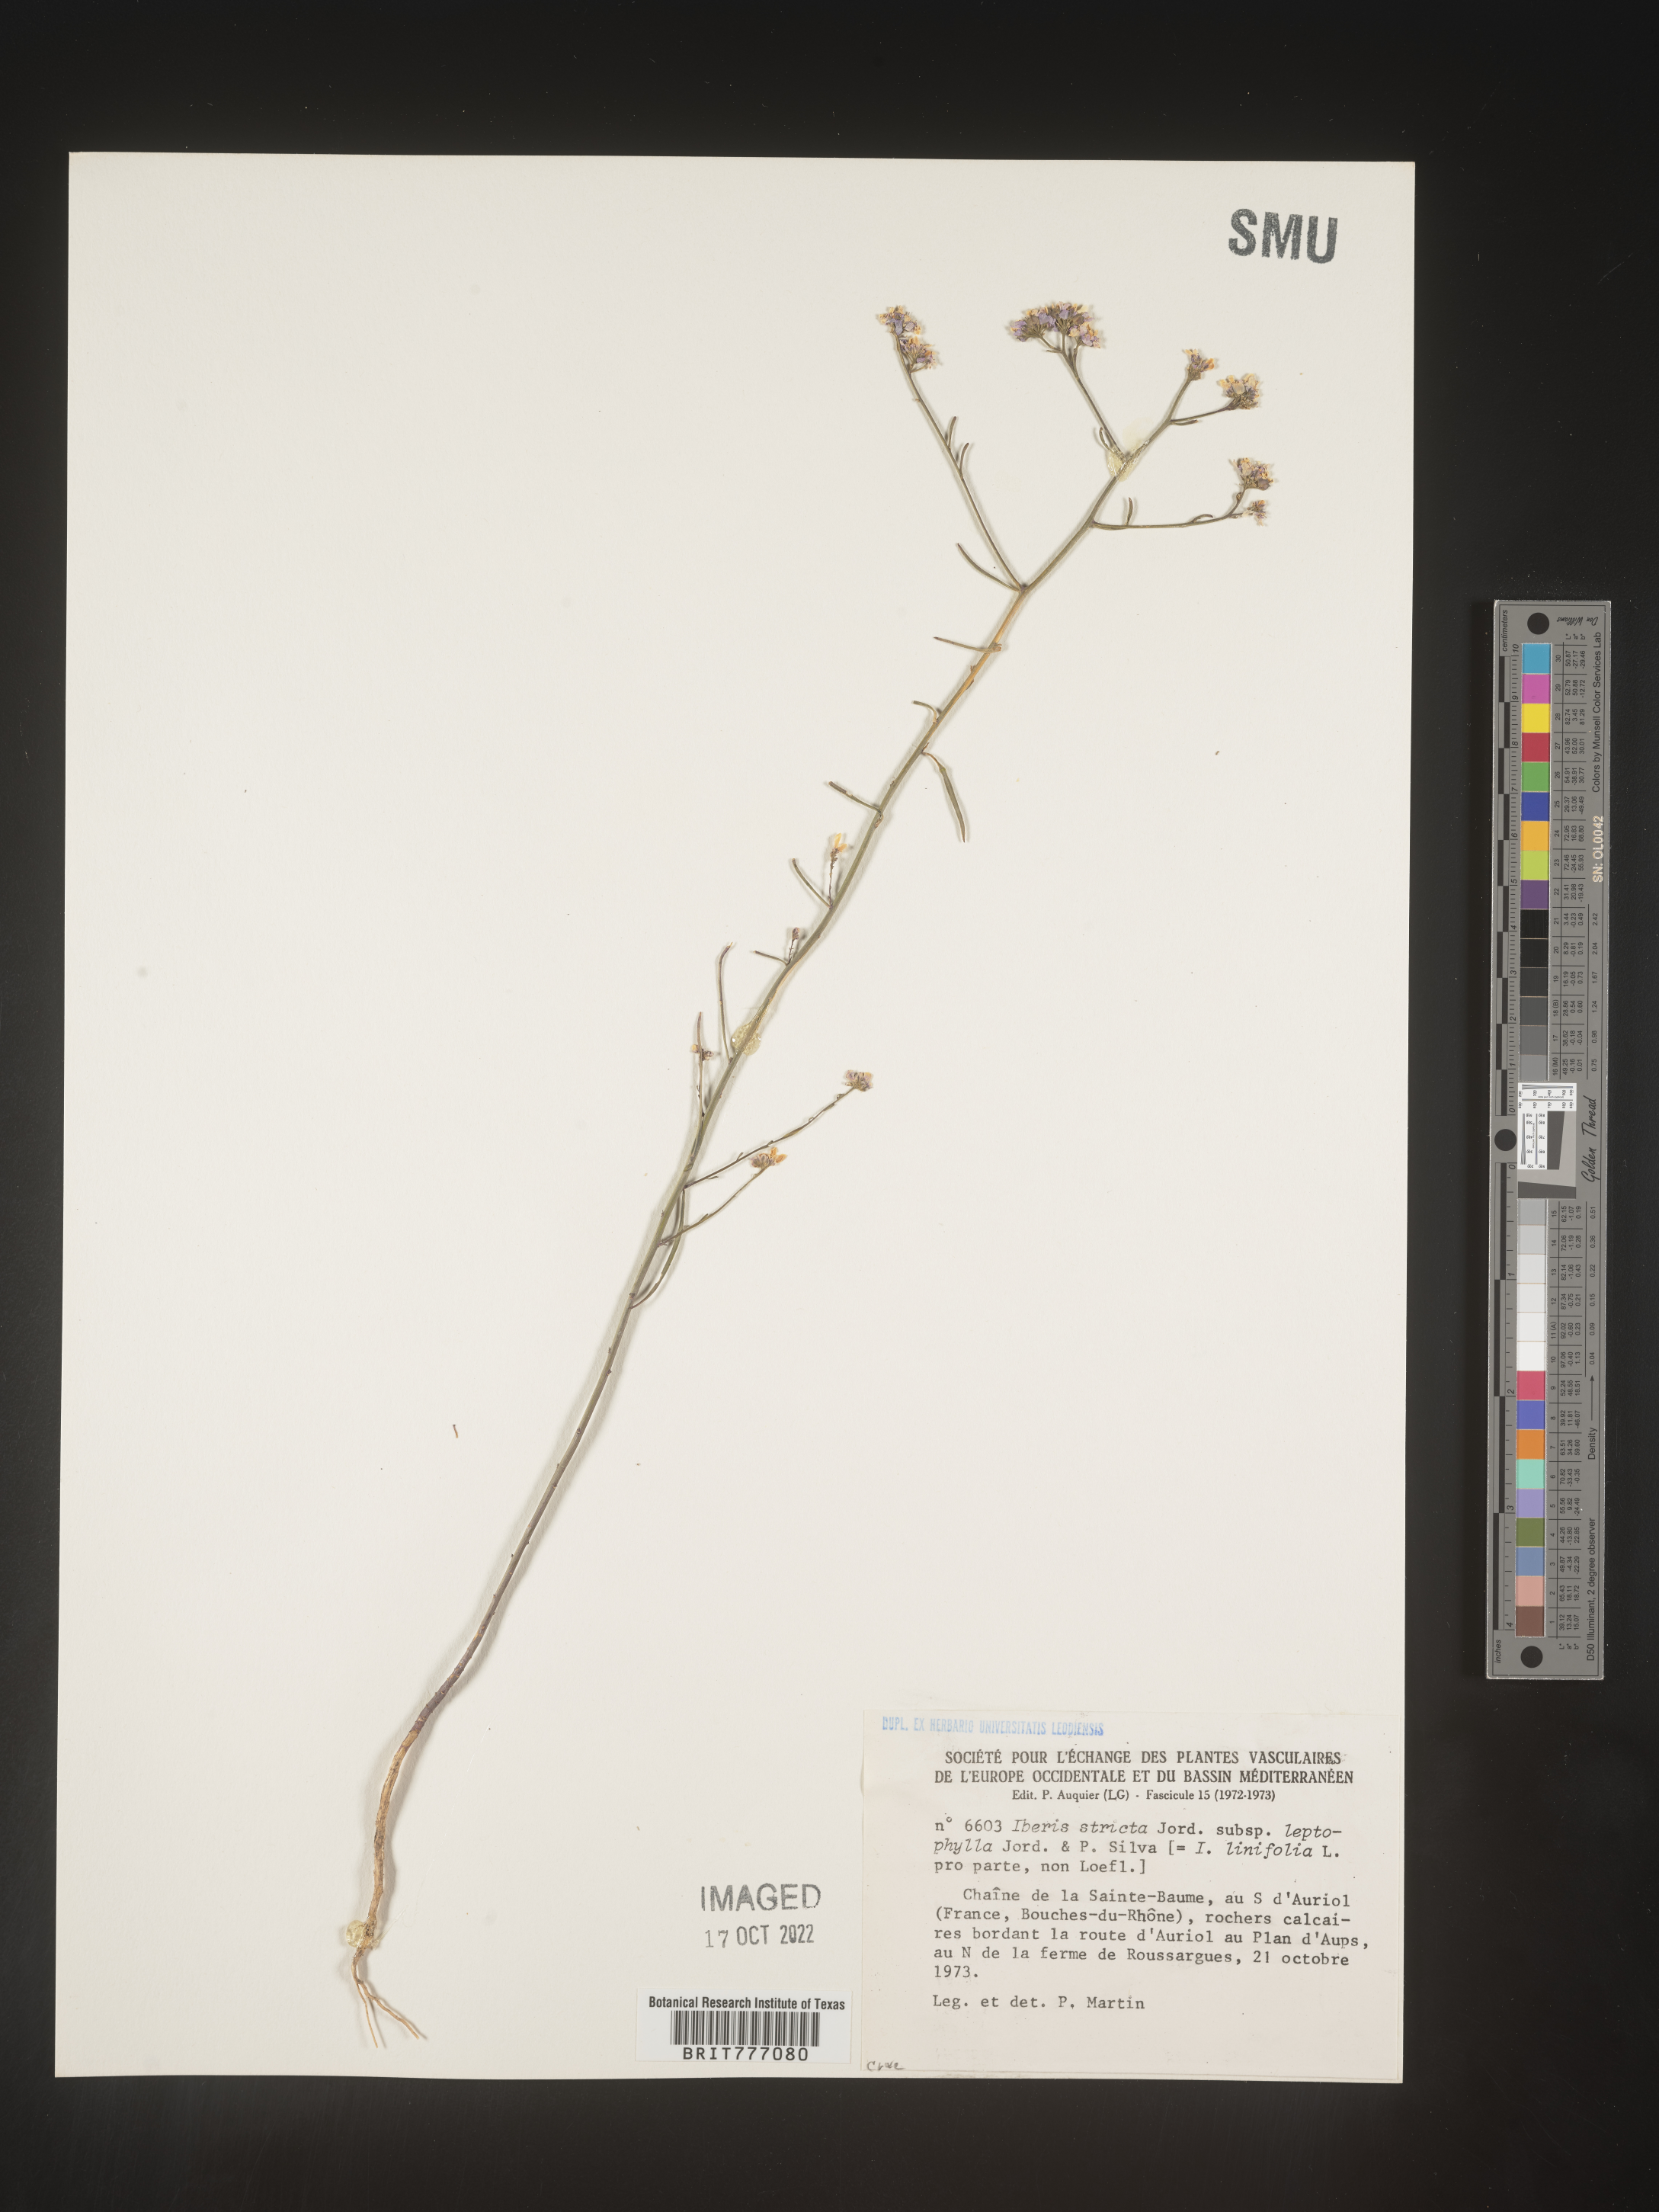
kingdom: Plantae
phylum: Tracheophyta
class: Magnoliopsida
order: Brassicales
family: Brassicaceae
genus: Iberis
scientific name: Iberis
